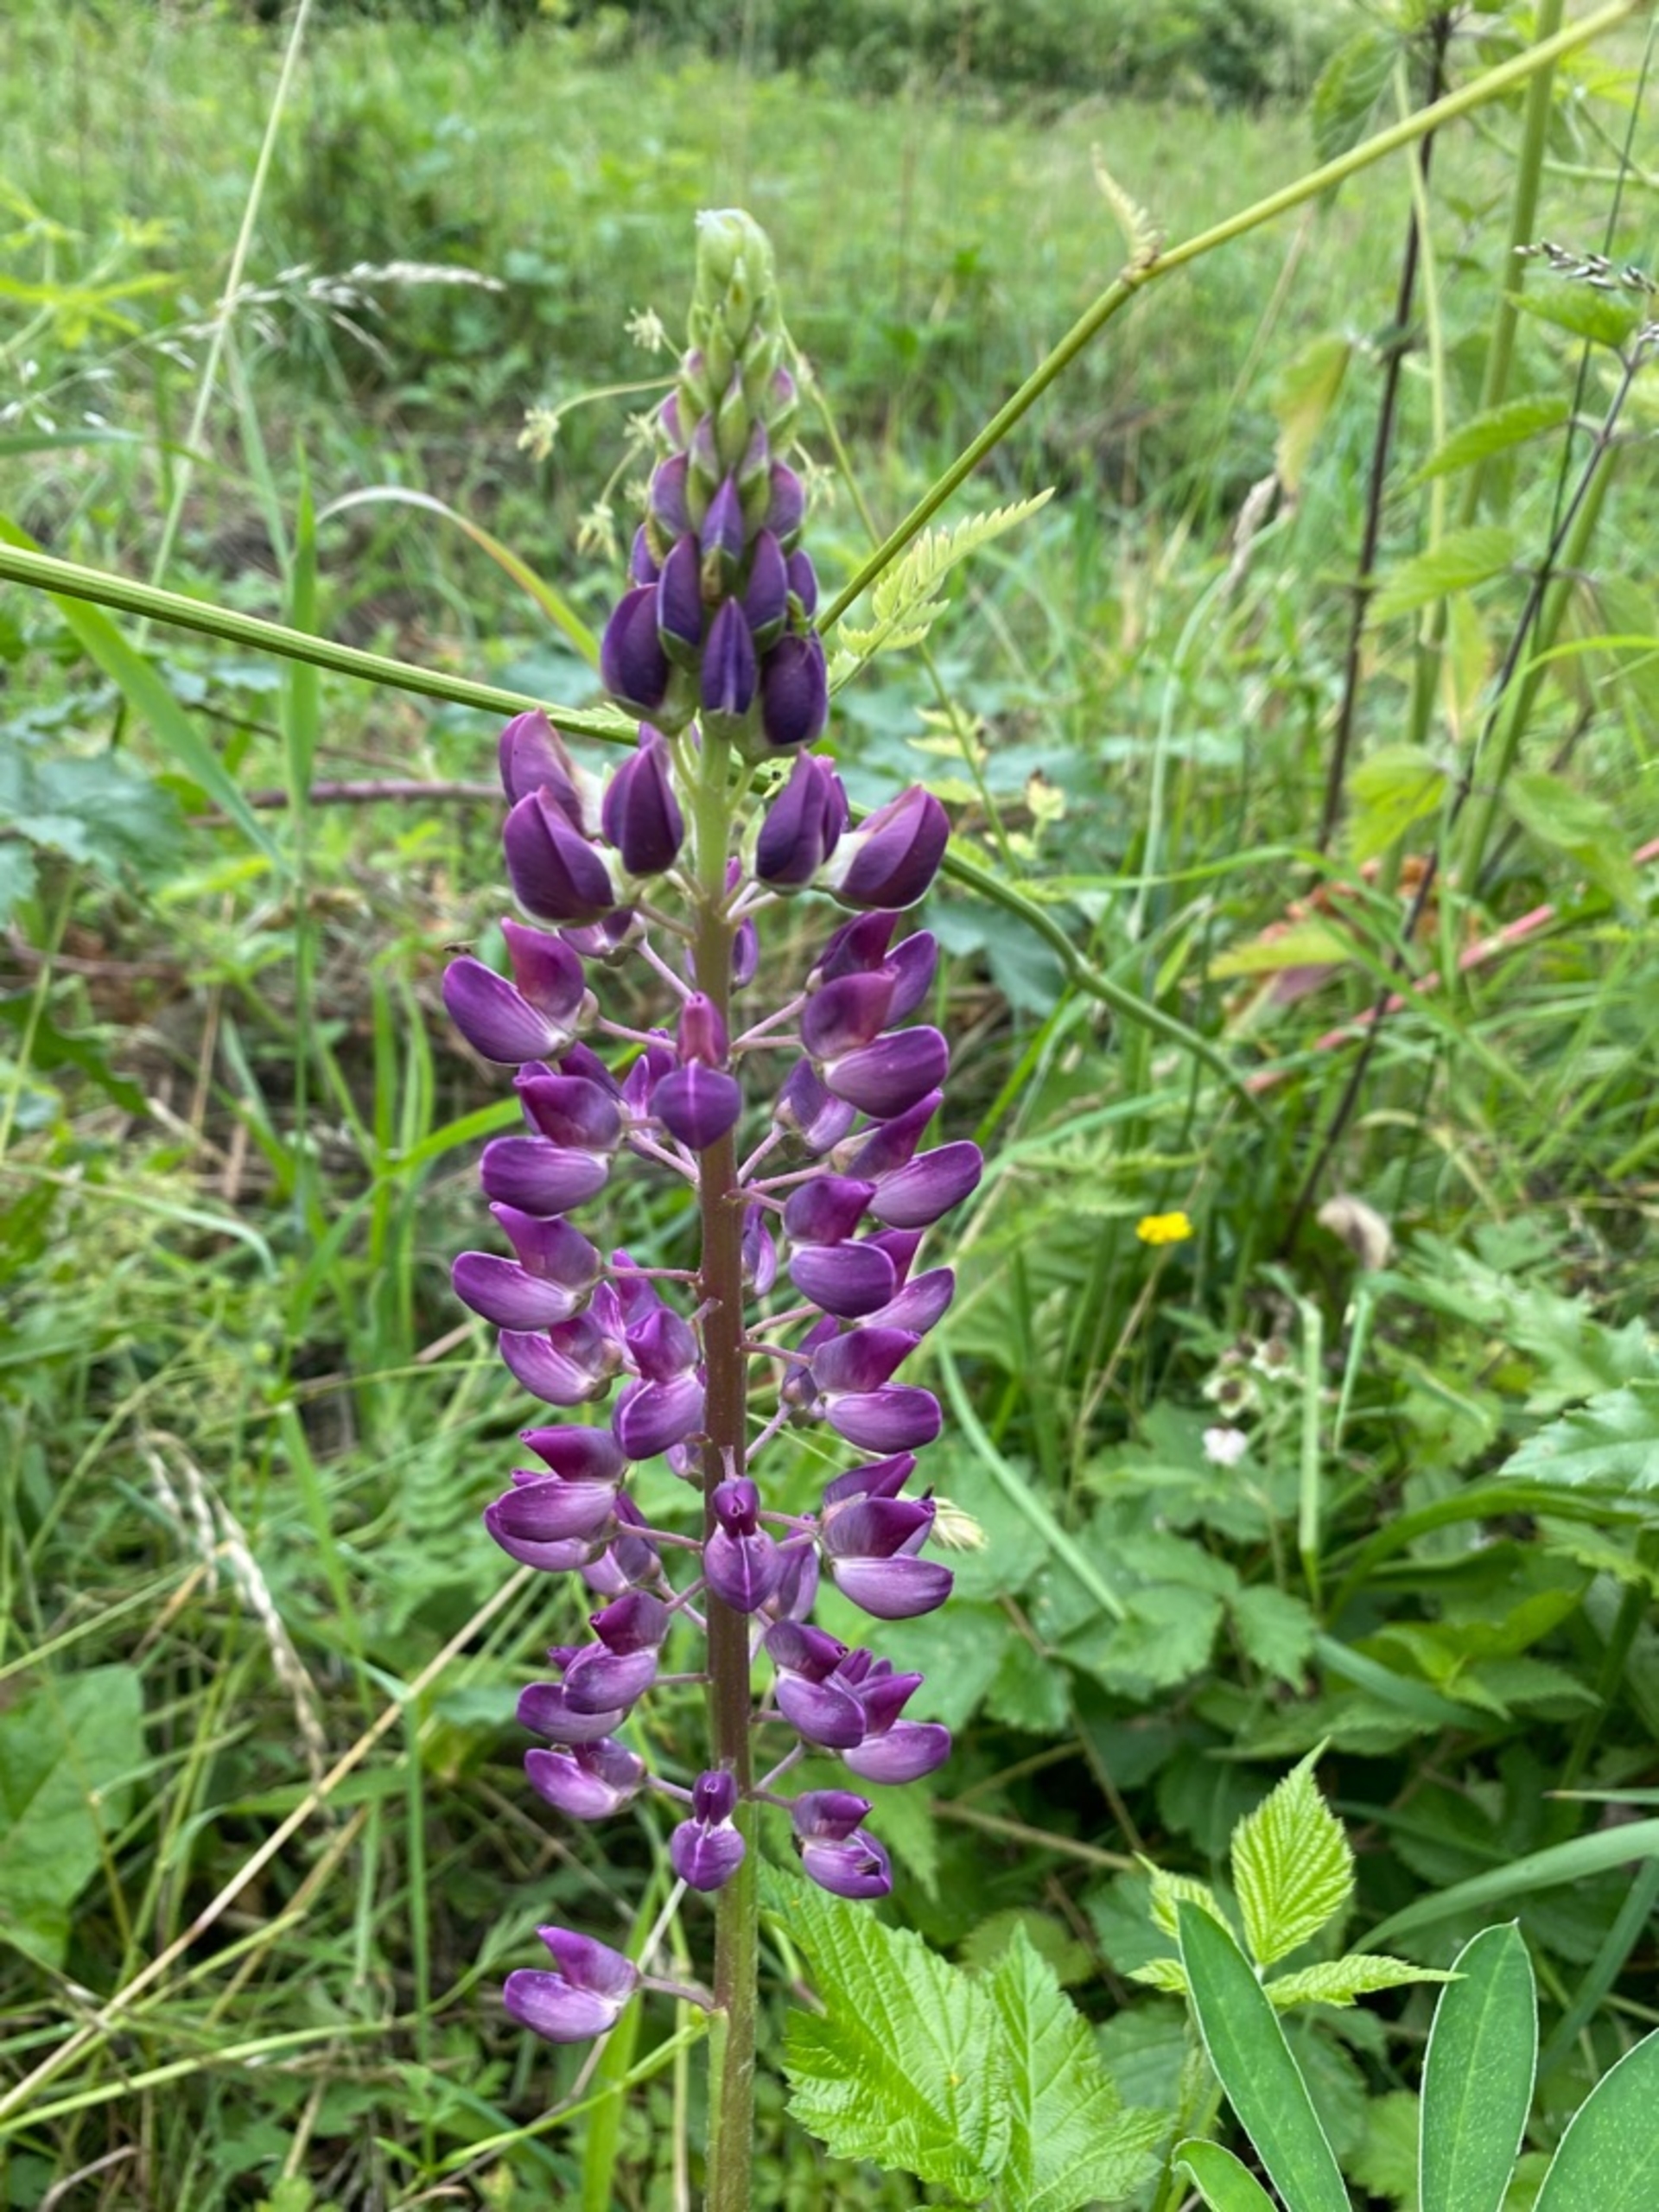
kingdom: Plantae
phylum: Tracheophyta
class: Magnoliopsida
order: Fabales
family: Fabaceae
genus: Lupinus
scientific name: Lupinus polyphyllus
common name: Mangebladet lupin
